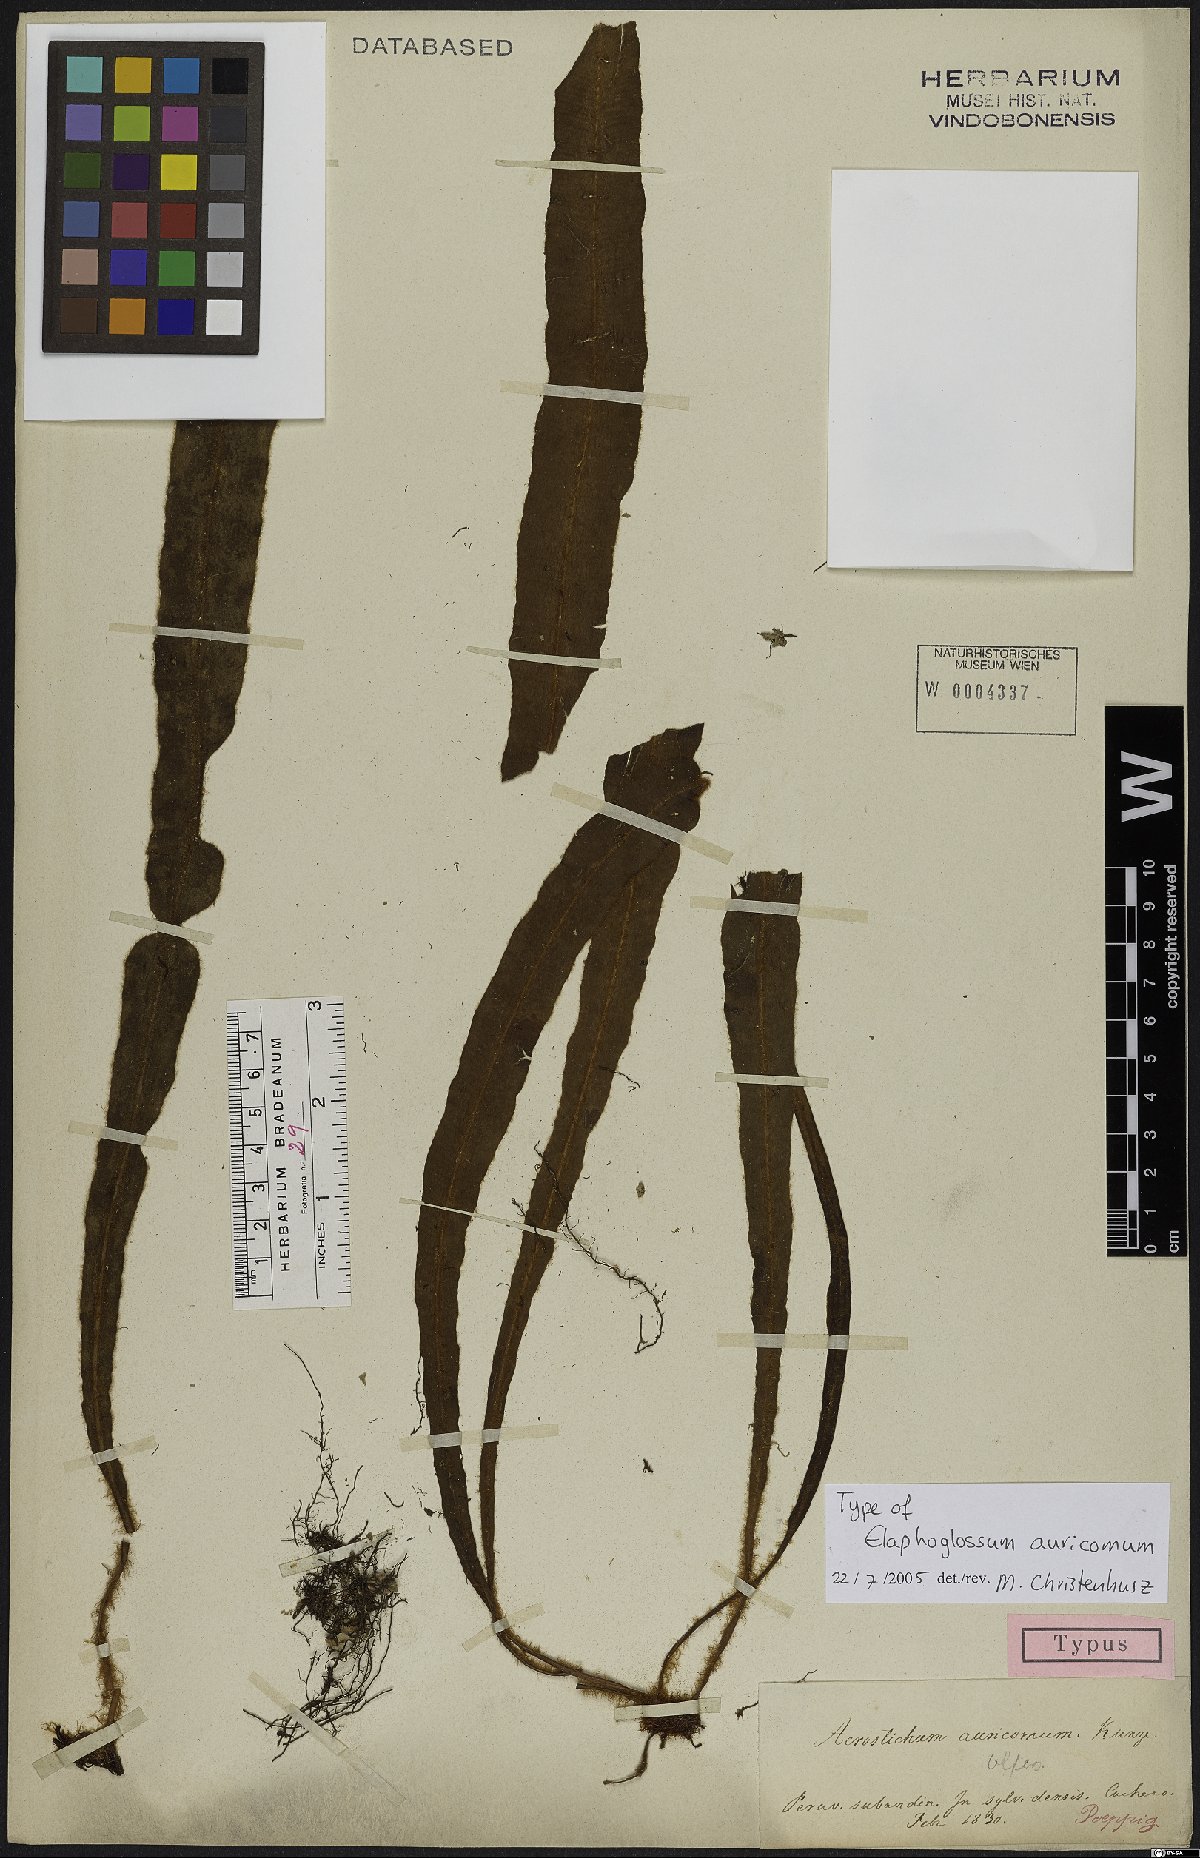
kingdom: Plantae
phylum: Tracheophyta
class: Polypodiopsida
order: Polypodiales
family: Dryopteridaceae
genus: Elaphoglossum
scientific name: Elaphoglossum auricomum
